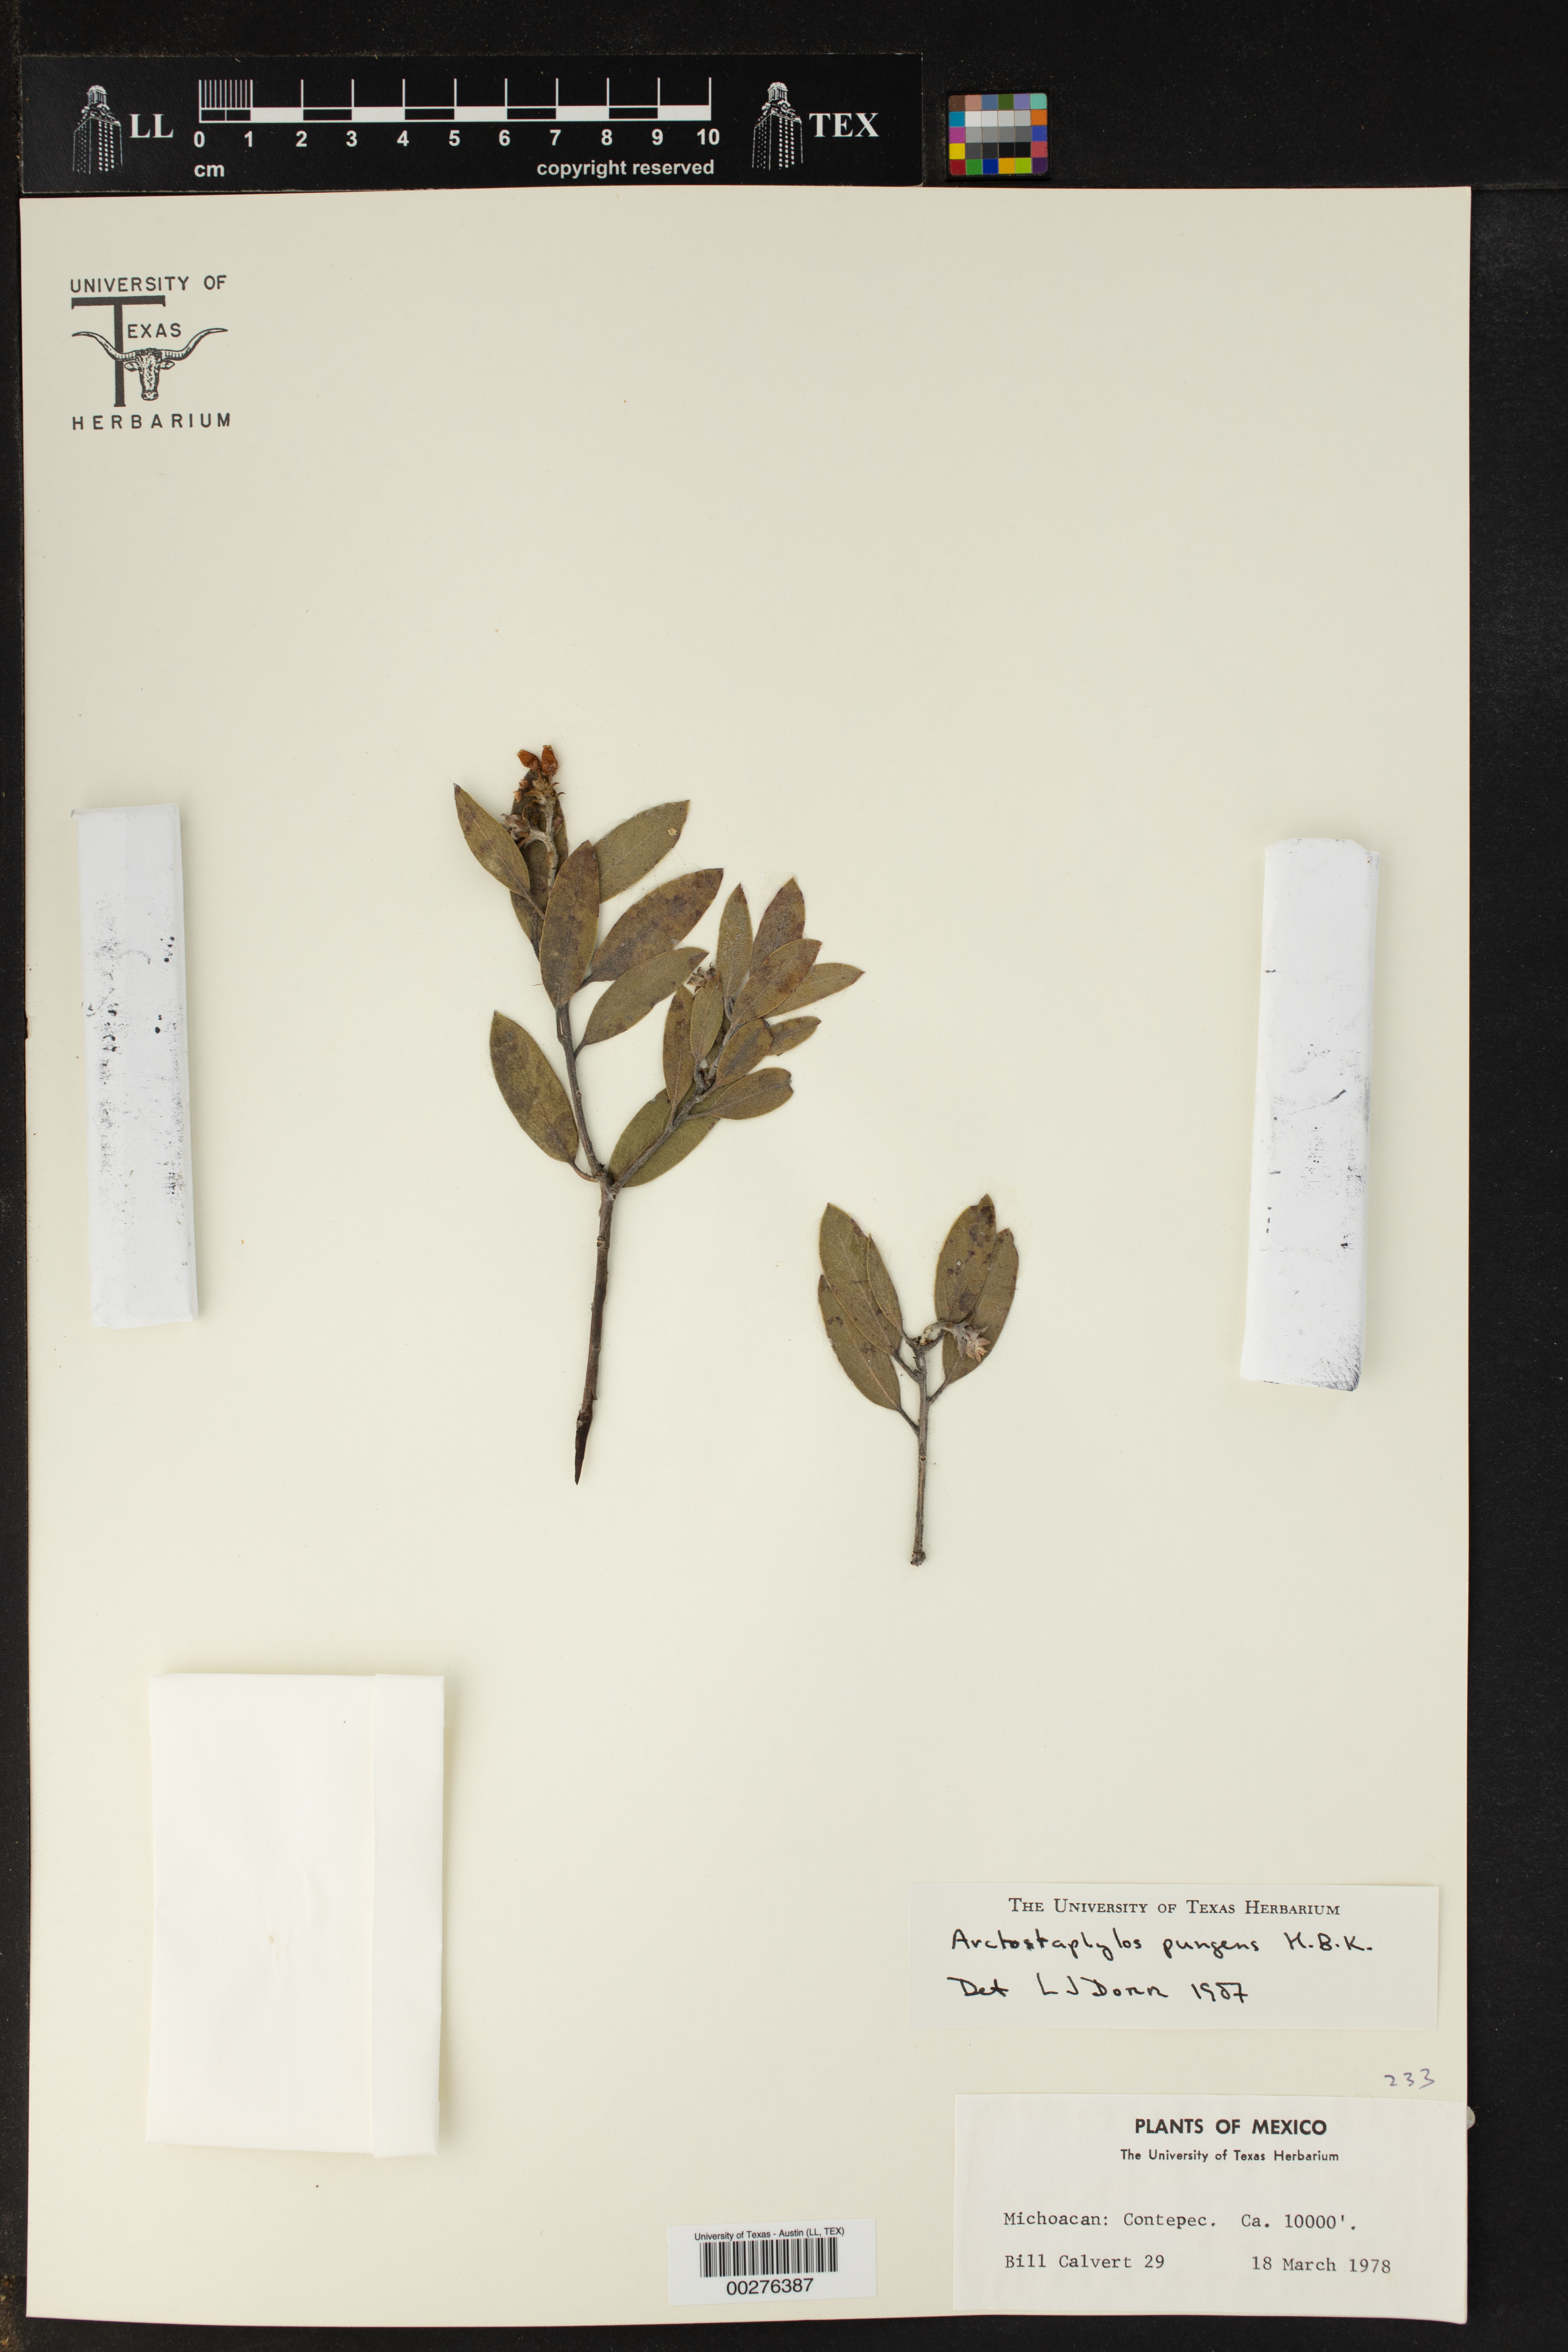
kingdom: Plantae
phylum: Tracheophyta
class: Magnoliopsida
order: Ericales
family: Ericaceae
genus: Arctostaphylos
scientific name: Arctostaphylos pungens
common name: Mexican manzanita
